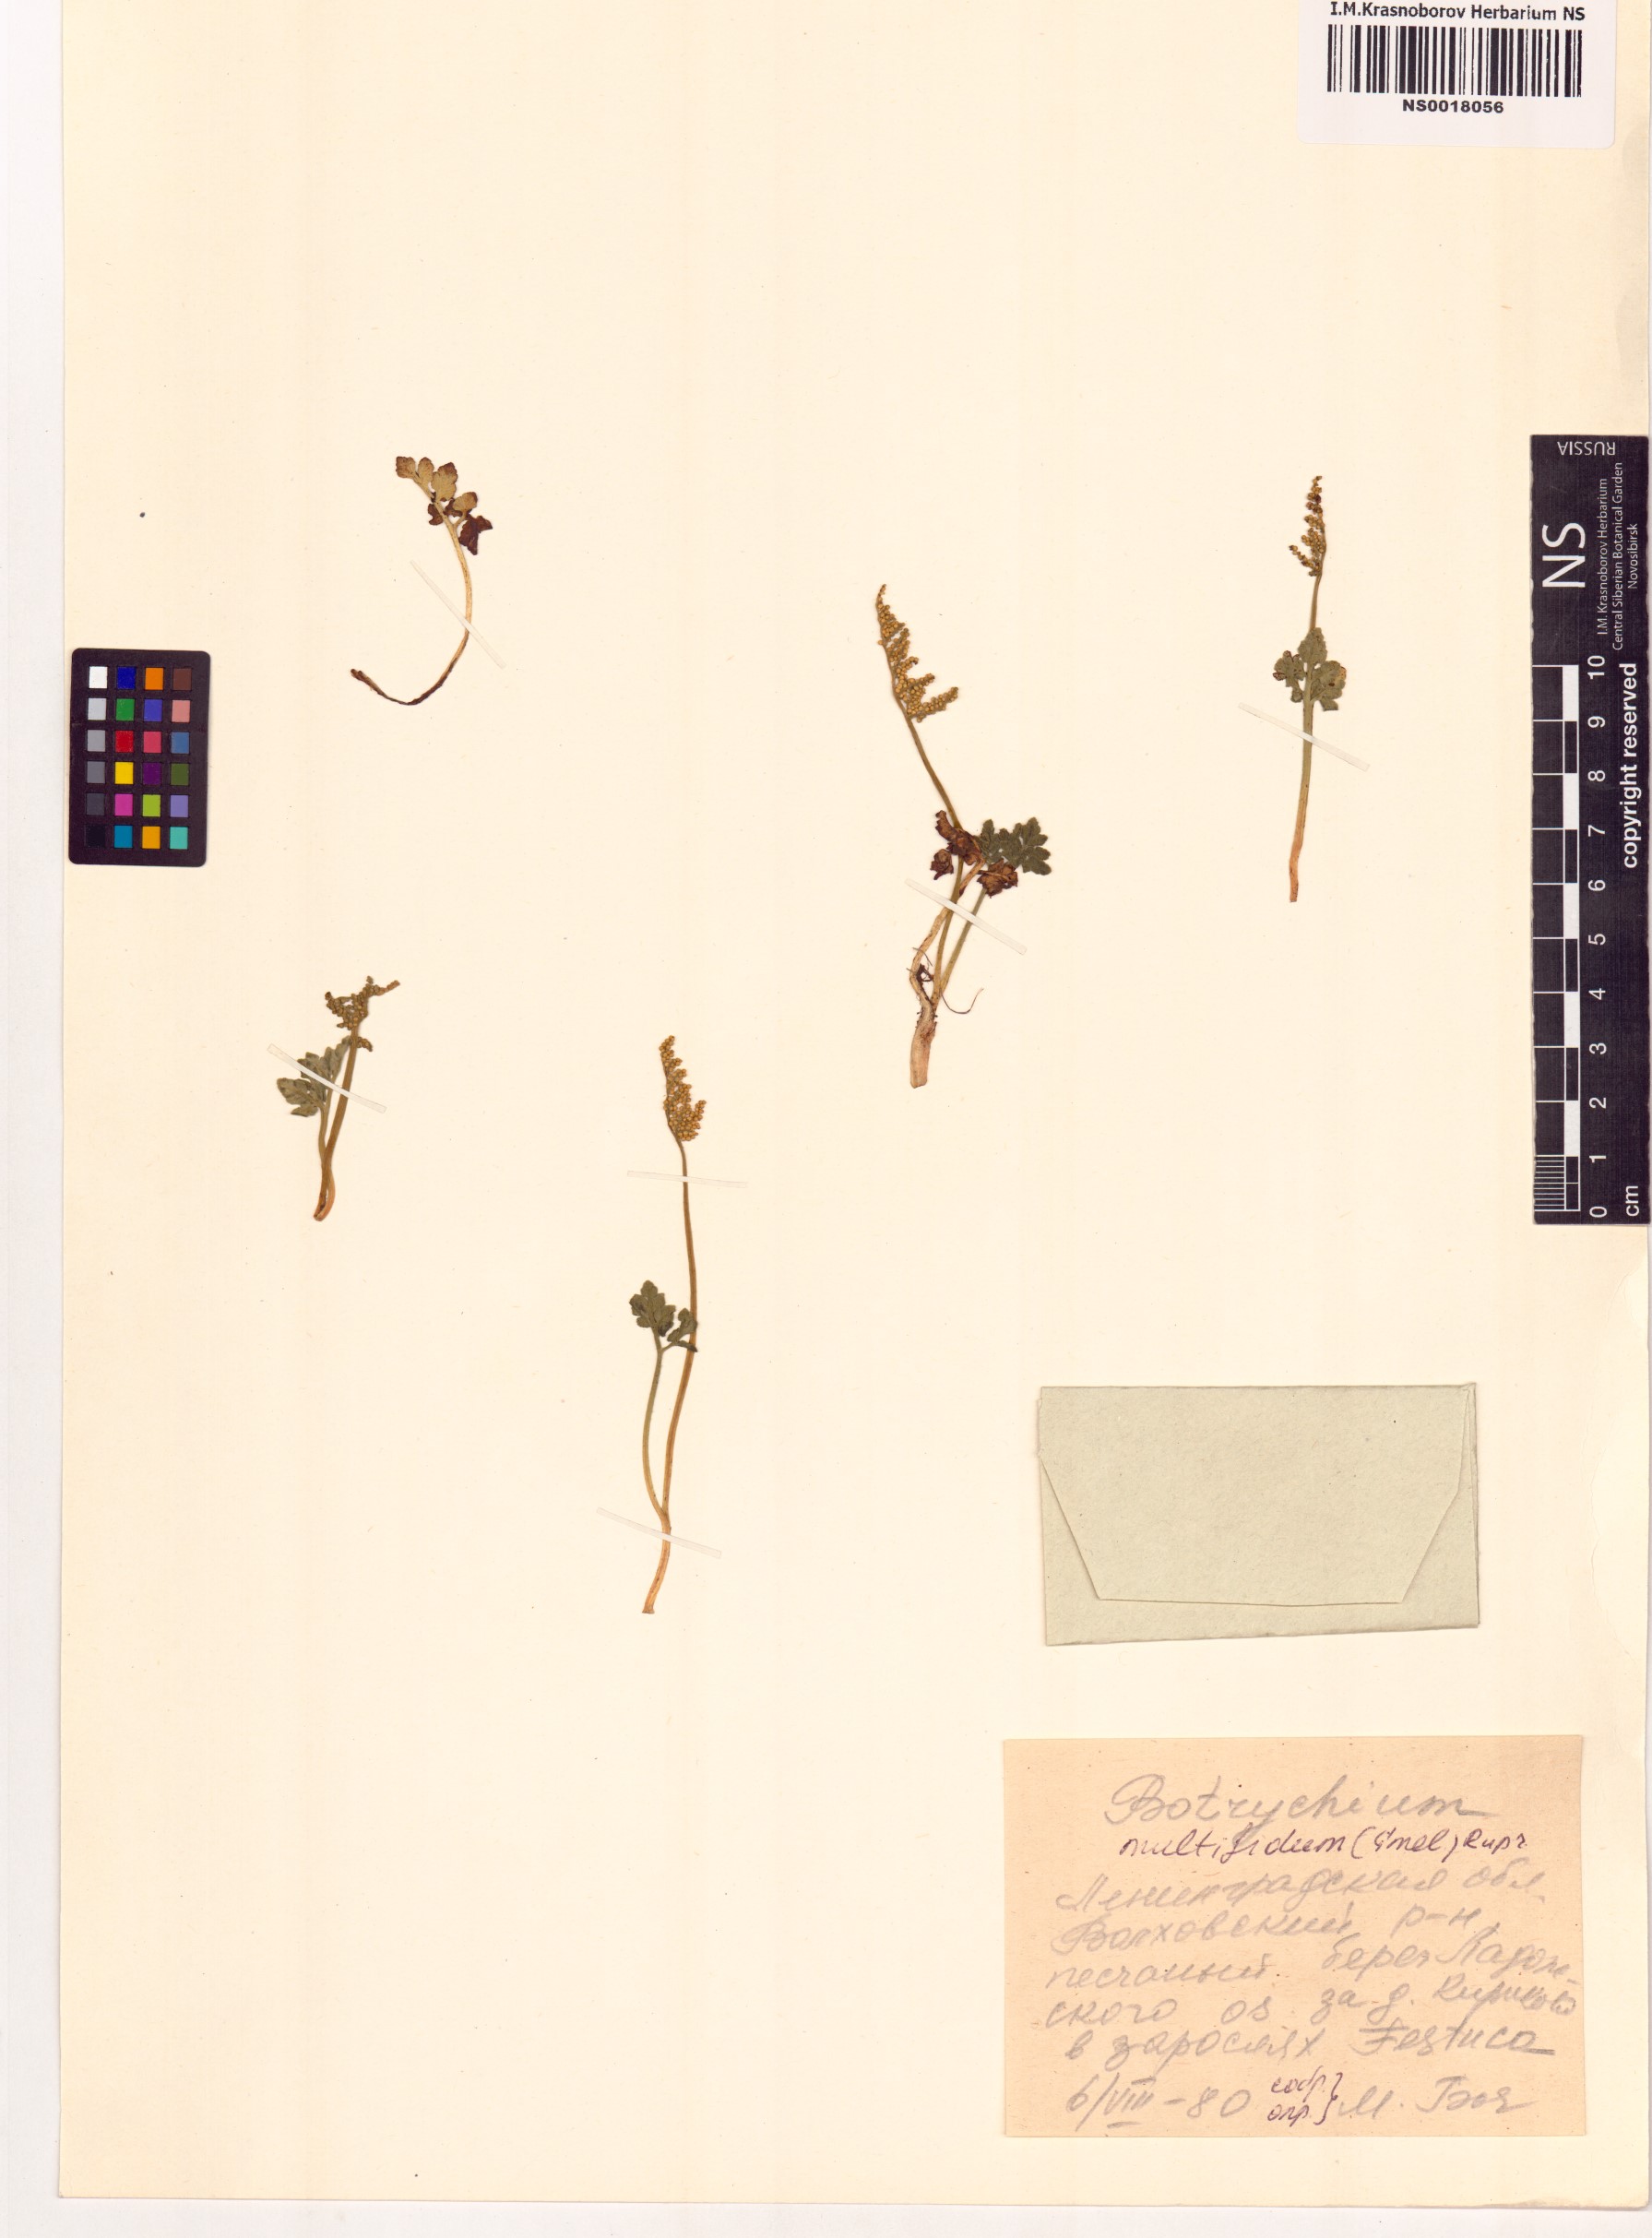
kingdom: Plantae
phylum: Tracheophyta
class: Polypodiopsida
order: Ophioglossales
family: Ophioglossaceae
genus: Sceptridium
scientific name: Sceptridium multifidum
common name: Leathery grape fern
